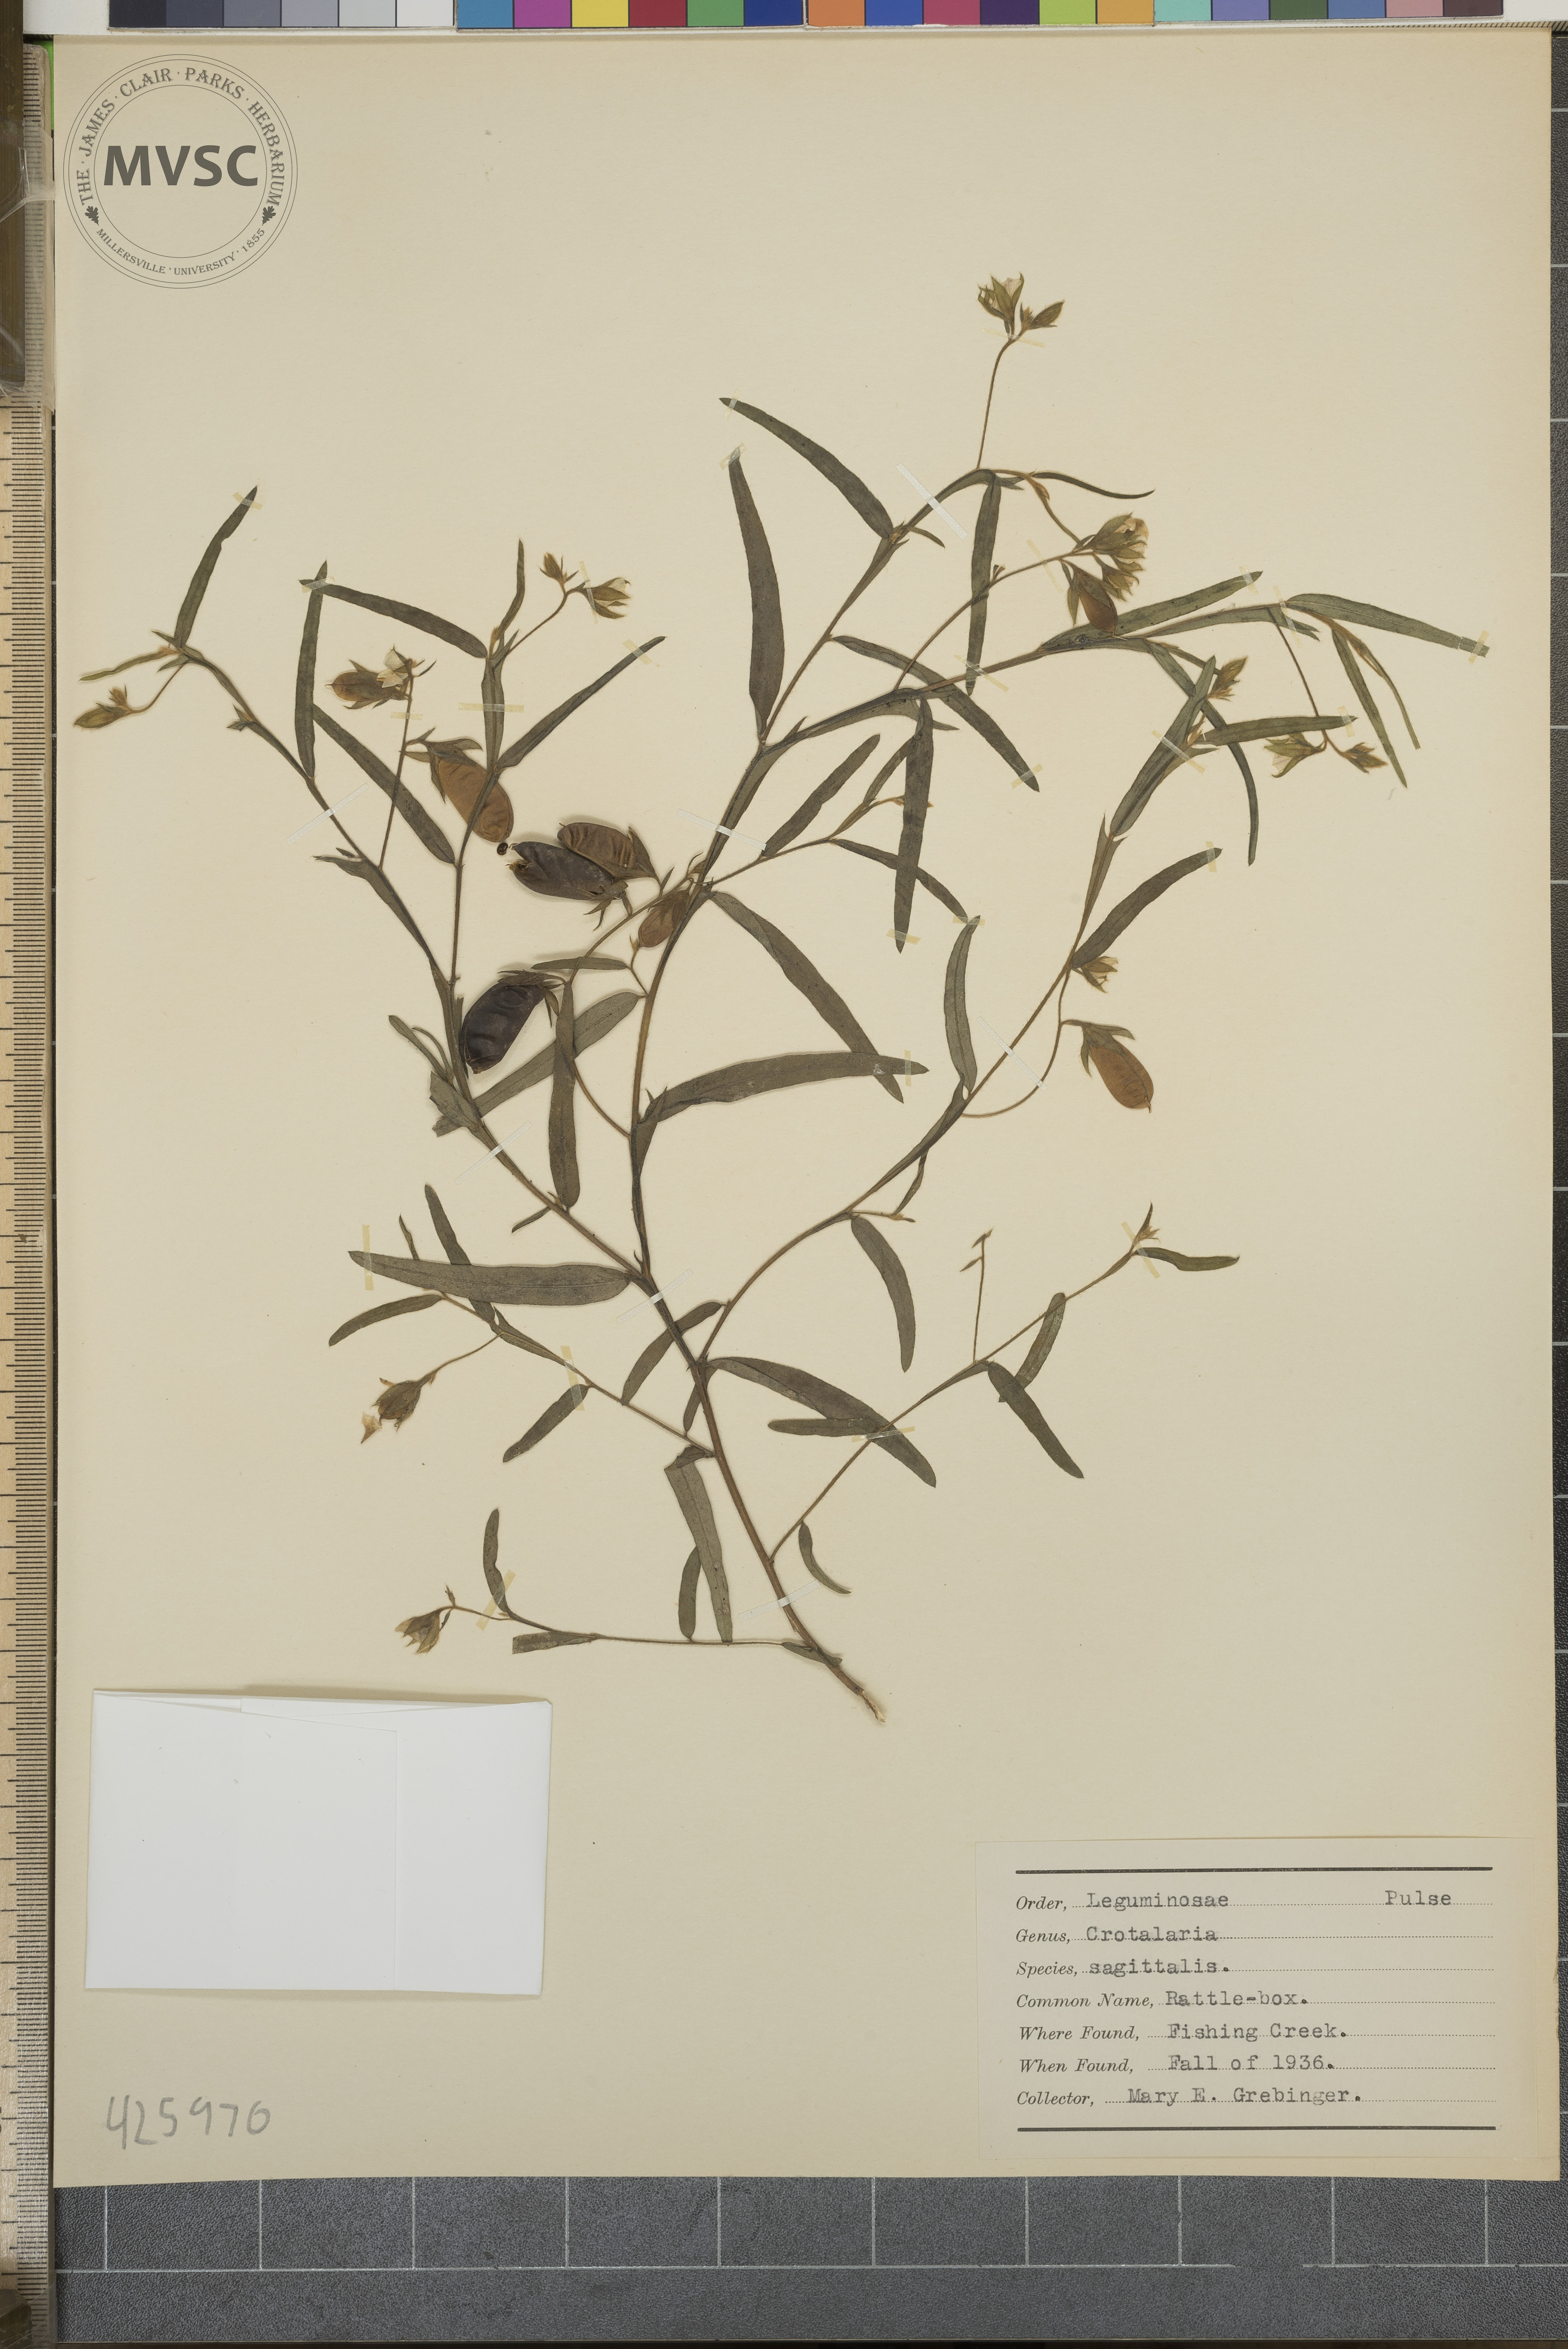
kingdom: Plantae
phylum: Tracheophyta
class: Magnoliopsida
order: Fabales
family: Fabaceae
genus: Crotalaria
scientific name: Crotalaria sagittalis
